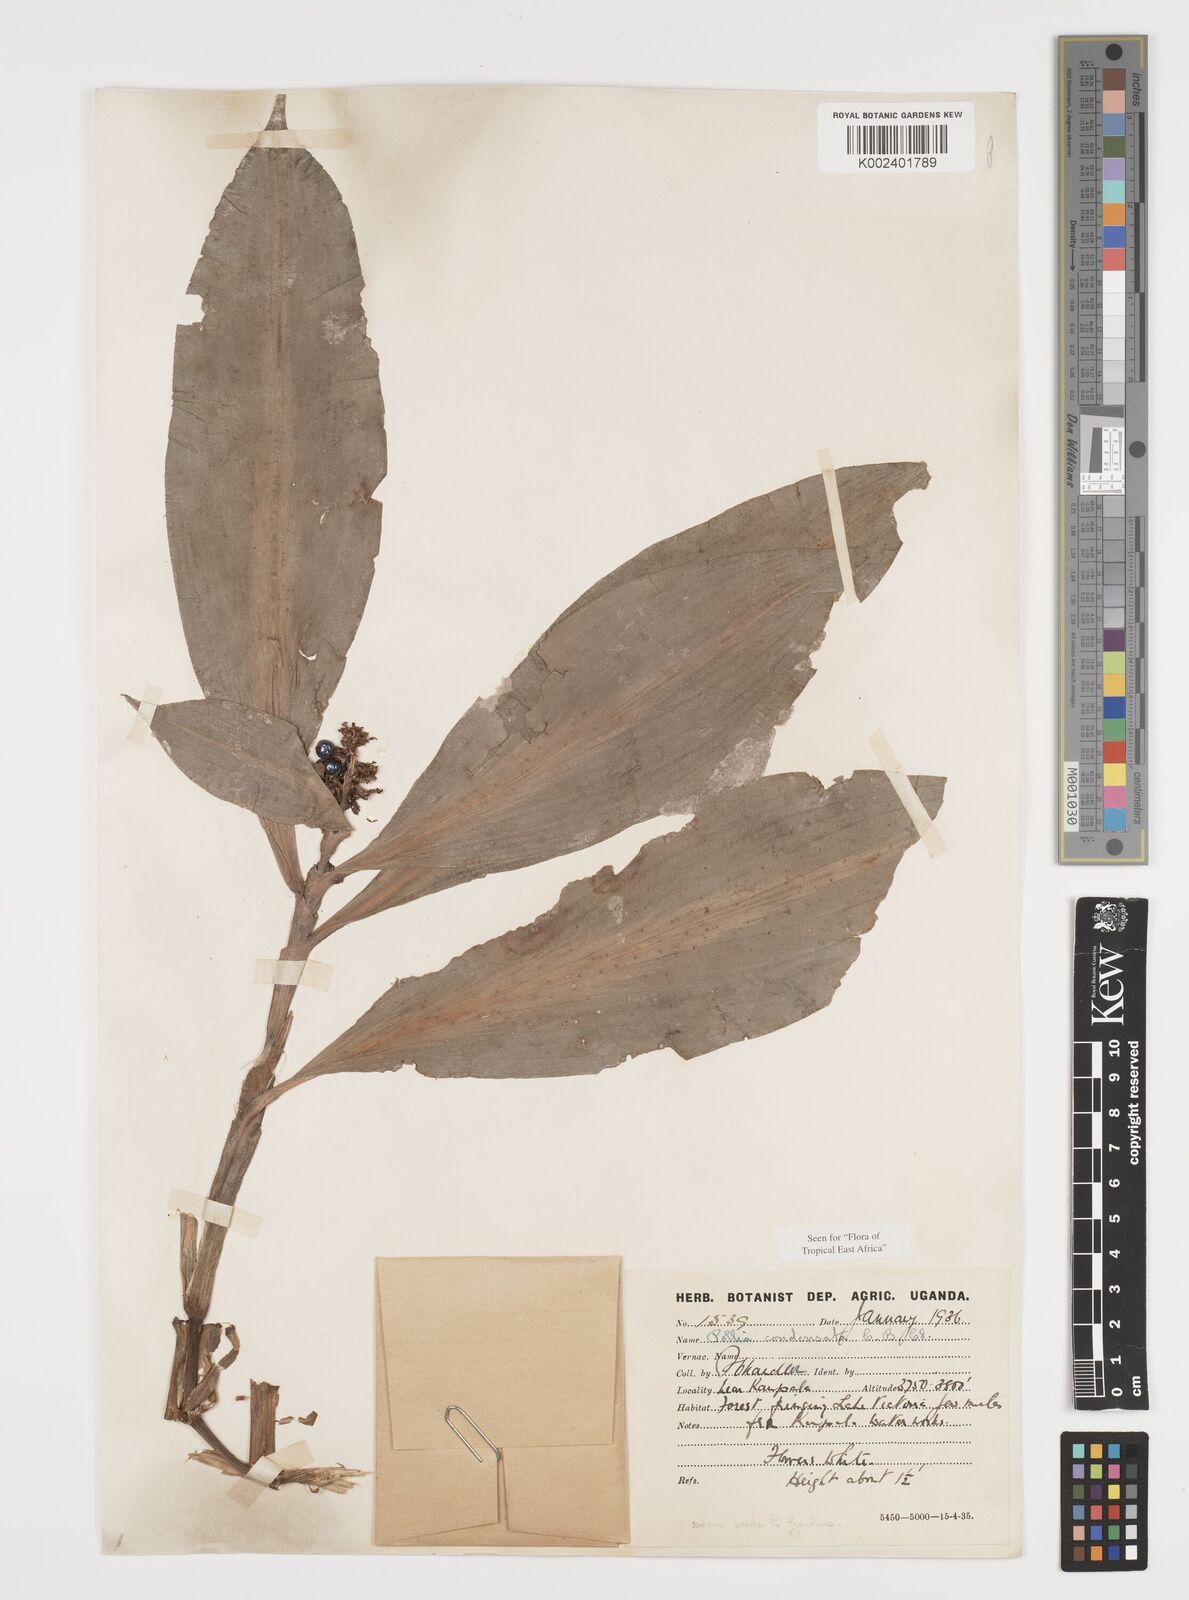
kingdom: Plantae
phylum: Tracheophyta
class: Liliopsida
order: Commelinales
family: Commelinaceae
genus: Pollia
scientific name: Pollia condensata
